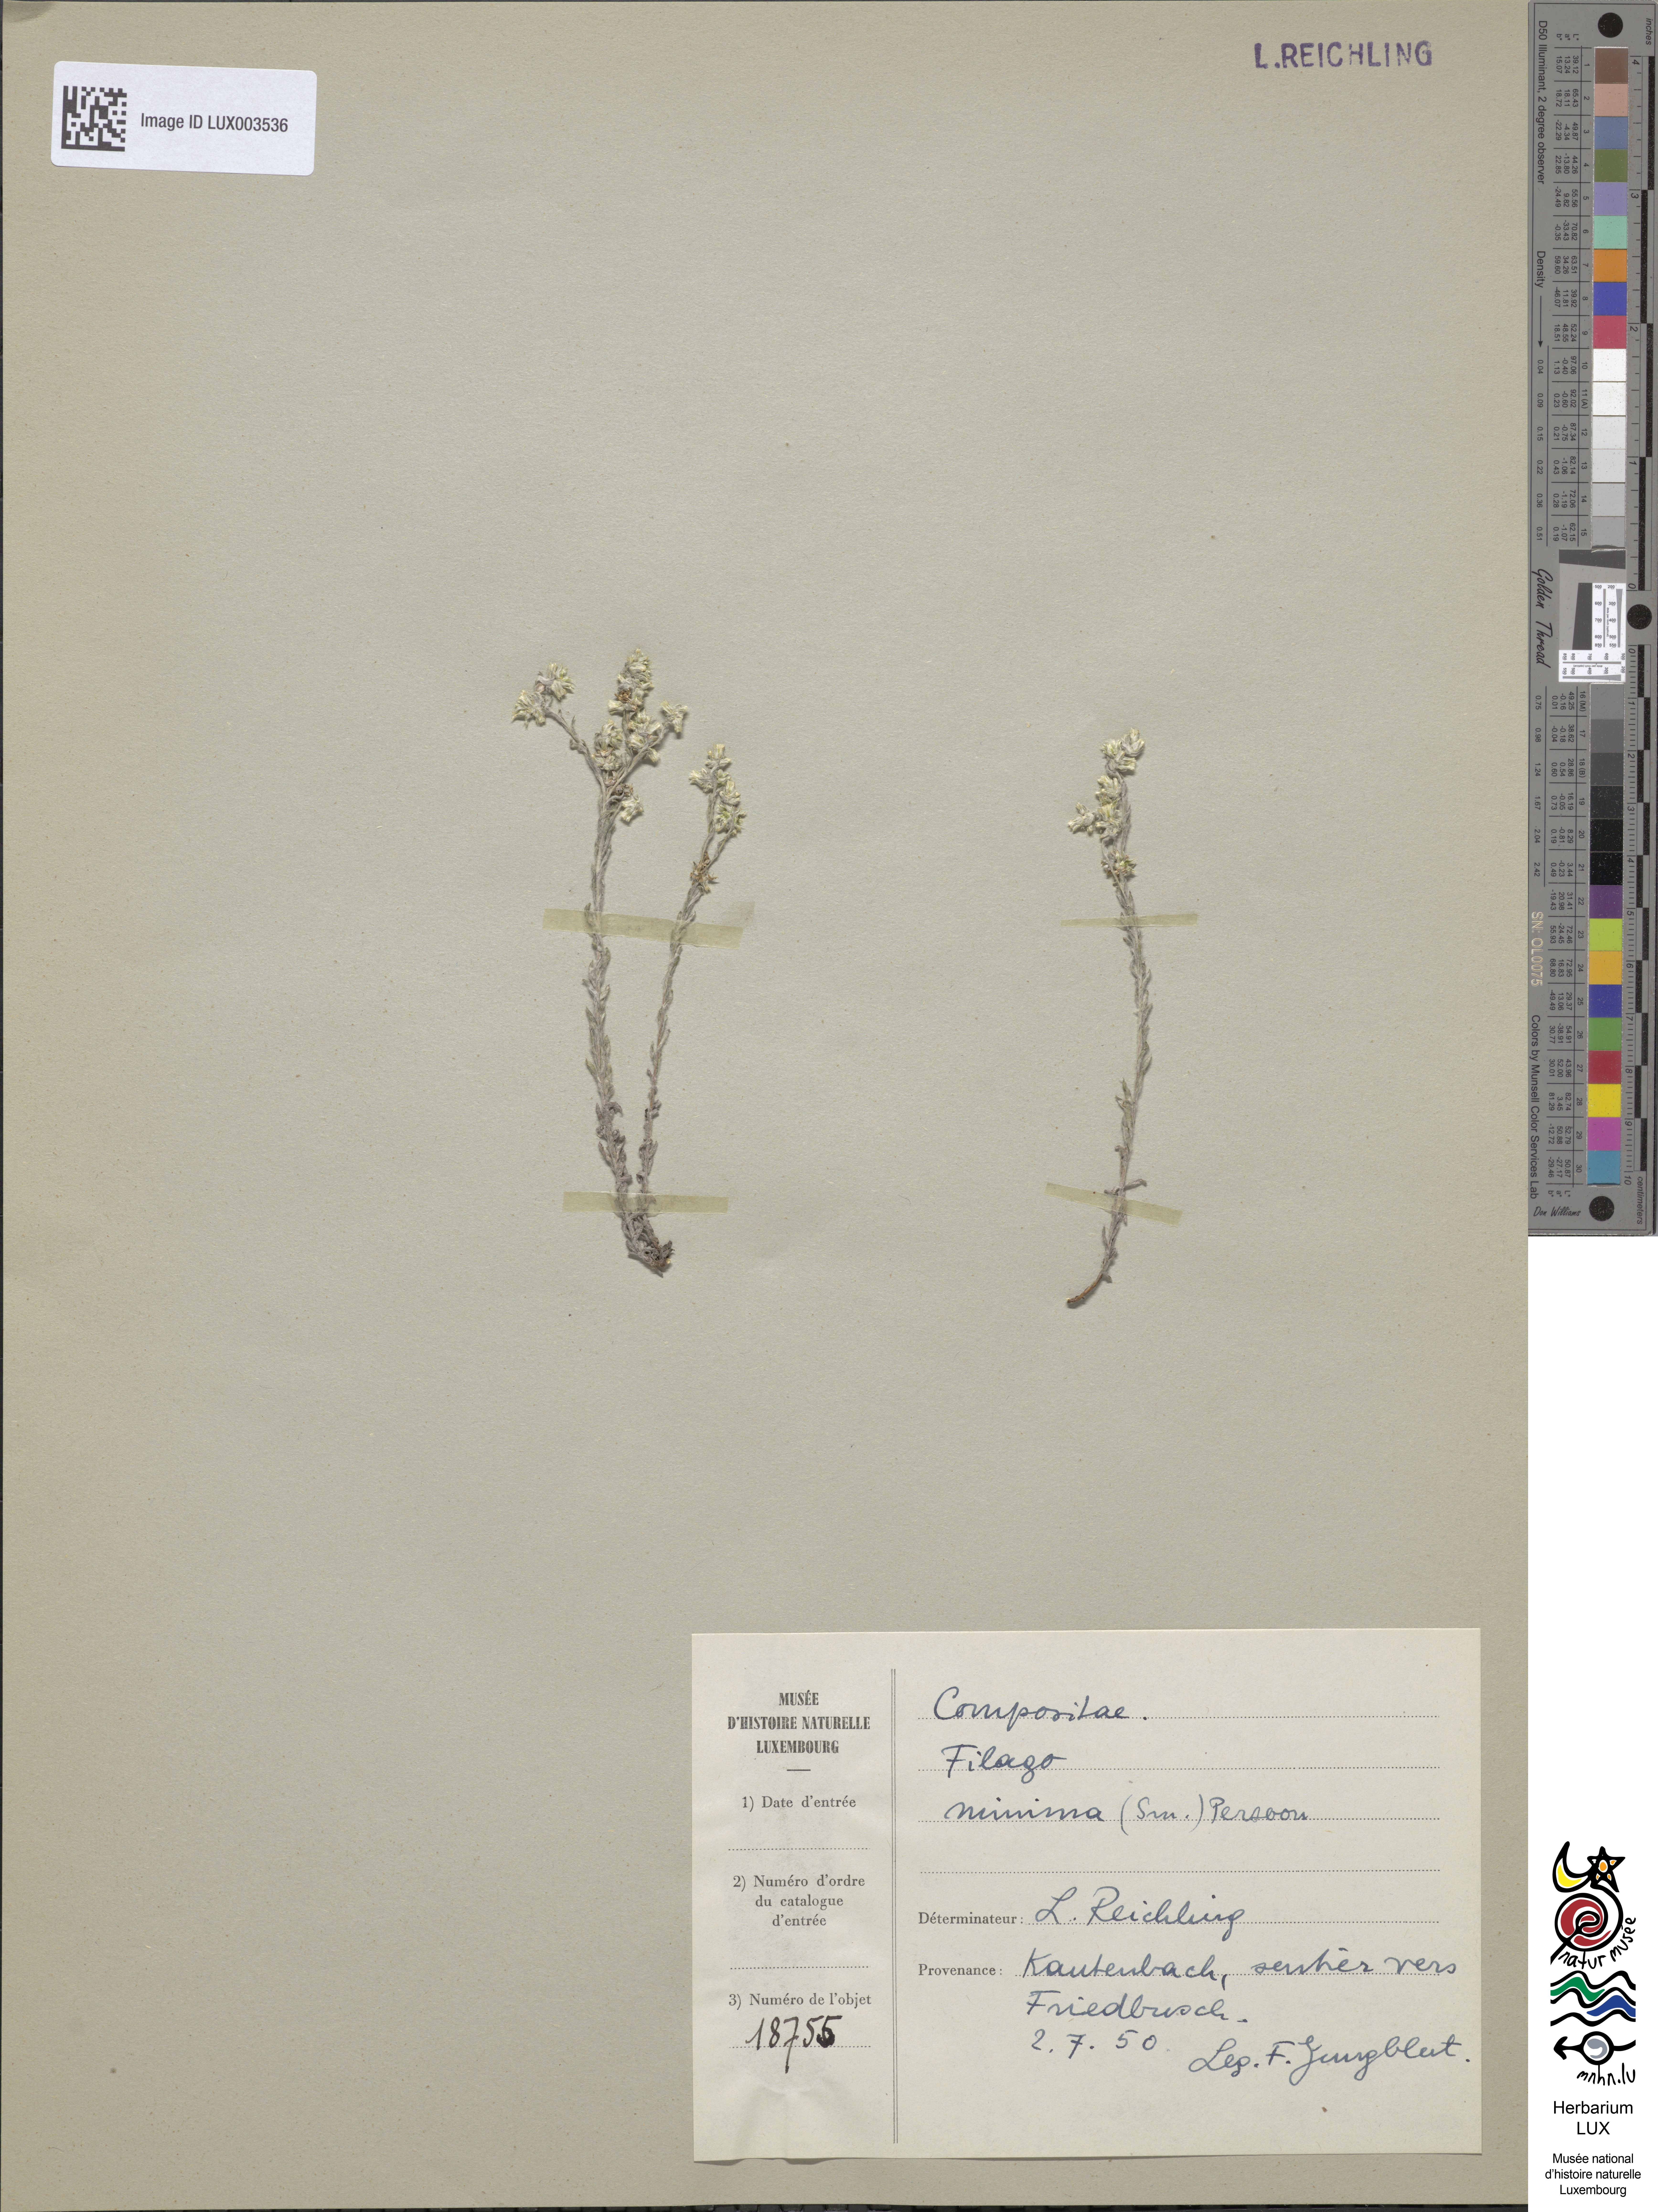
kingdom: Plantae
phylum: Tracheophyta
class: Magnoliopsida
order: Asterales
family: Asteraceae
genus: Logfia
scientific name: Logfia minima
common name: Little cottonrose
